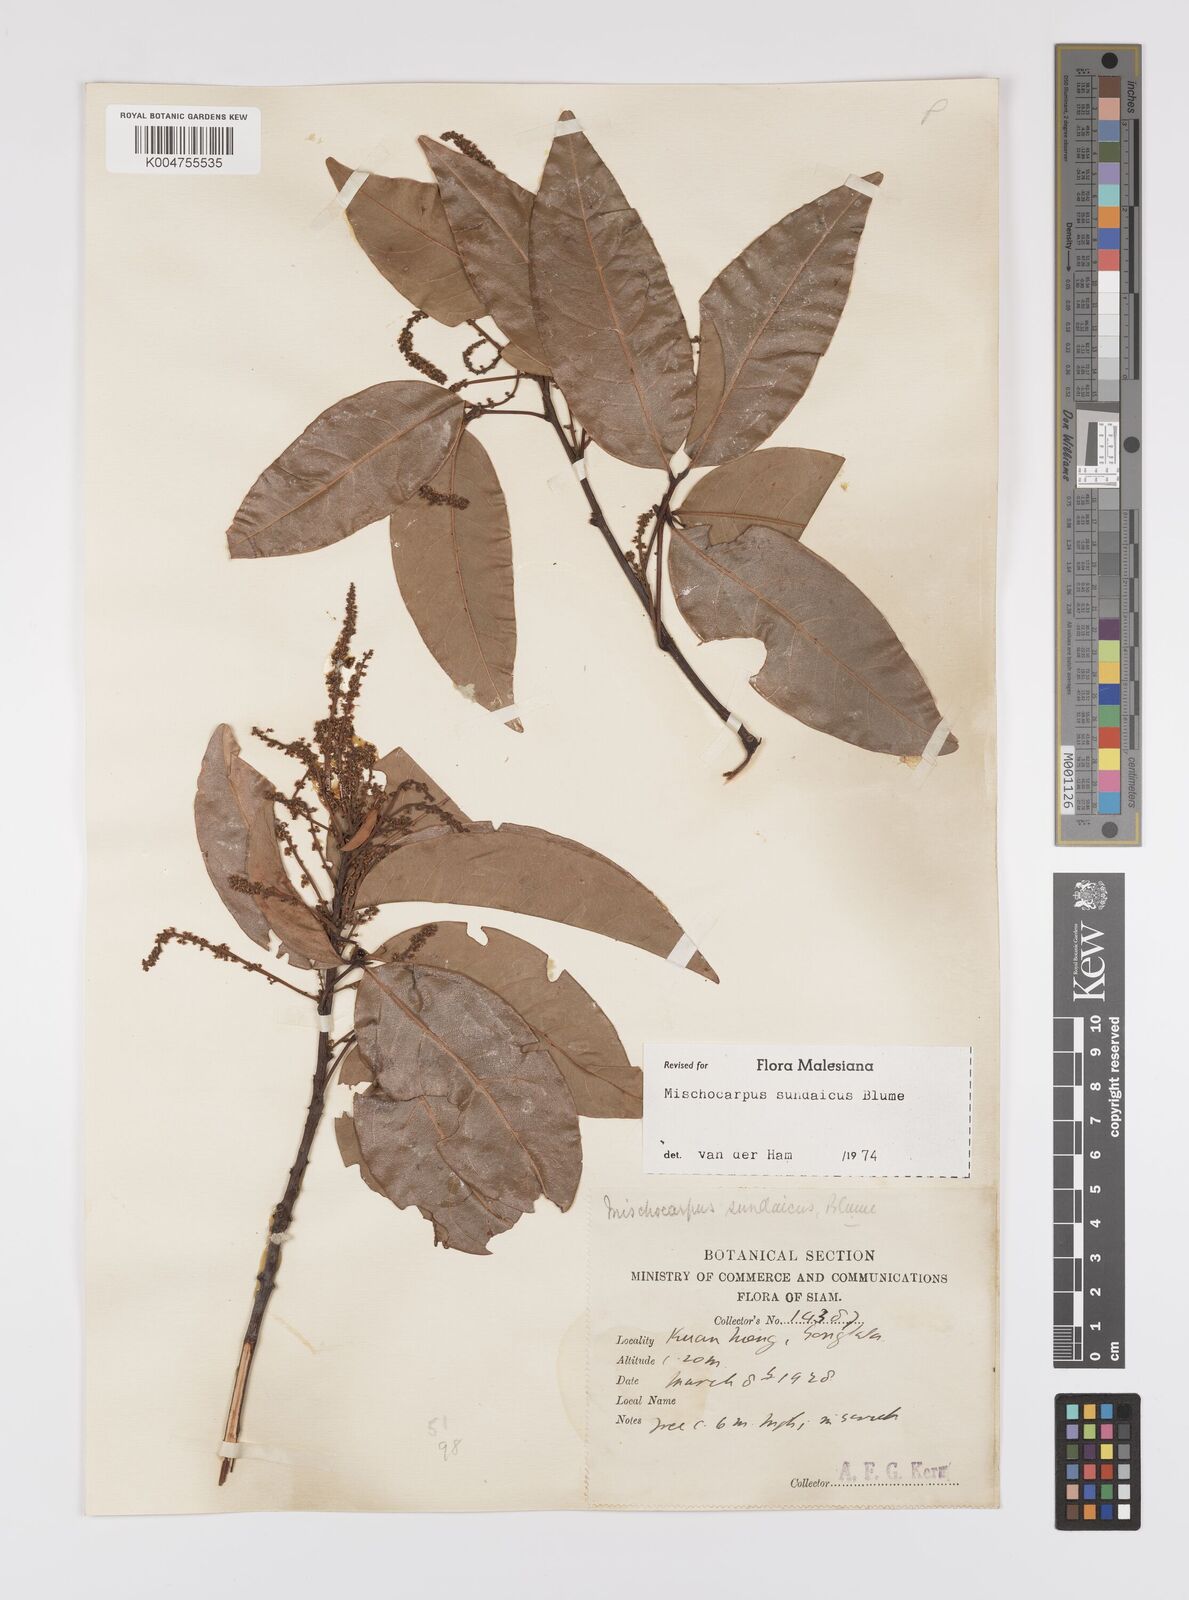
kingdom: Plantae
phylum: Tracheophyta
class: Magnoliopsida
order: Sapindales
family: Sapindaceae
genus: Mischocarpus
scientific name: Mischocarpus sundaicus
